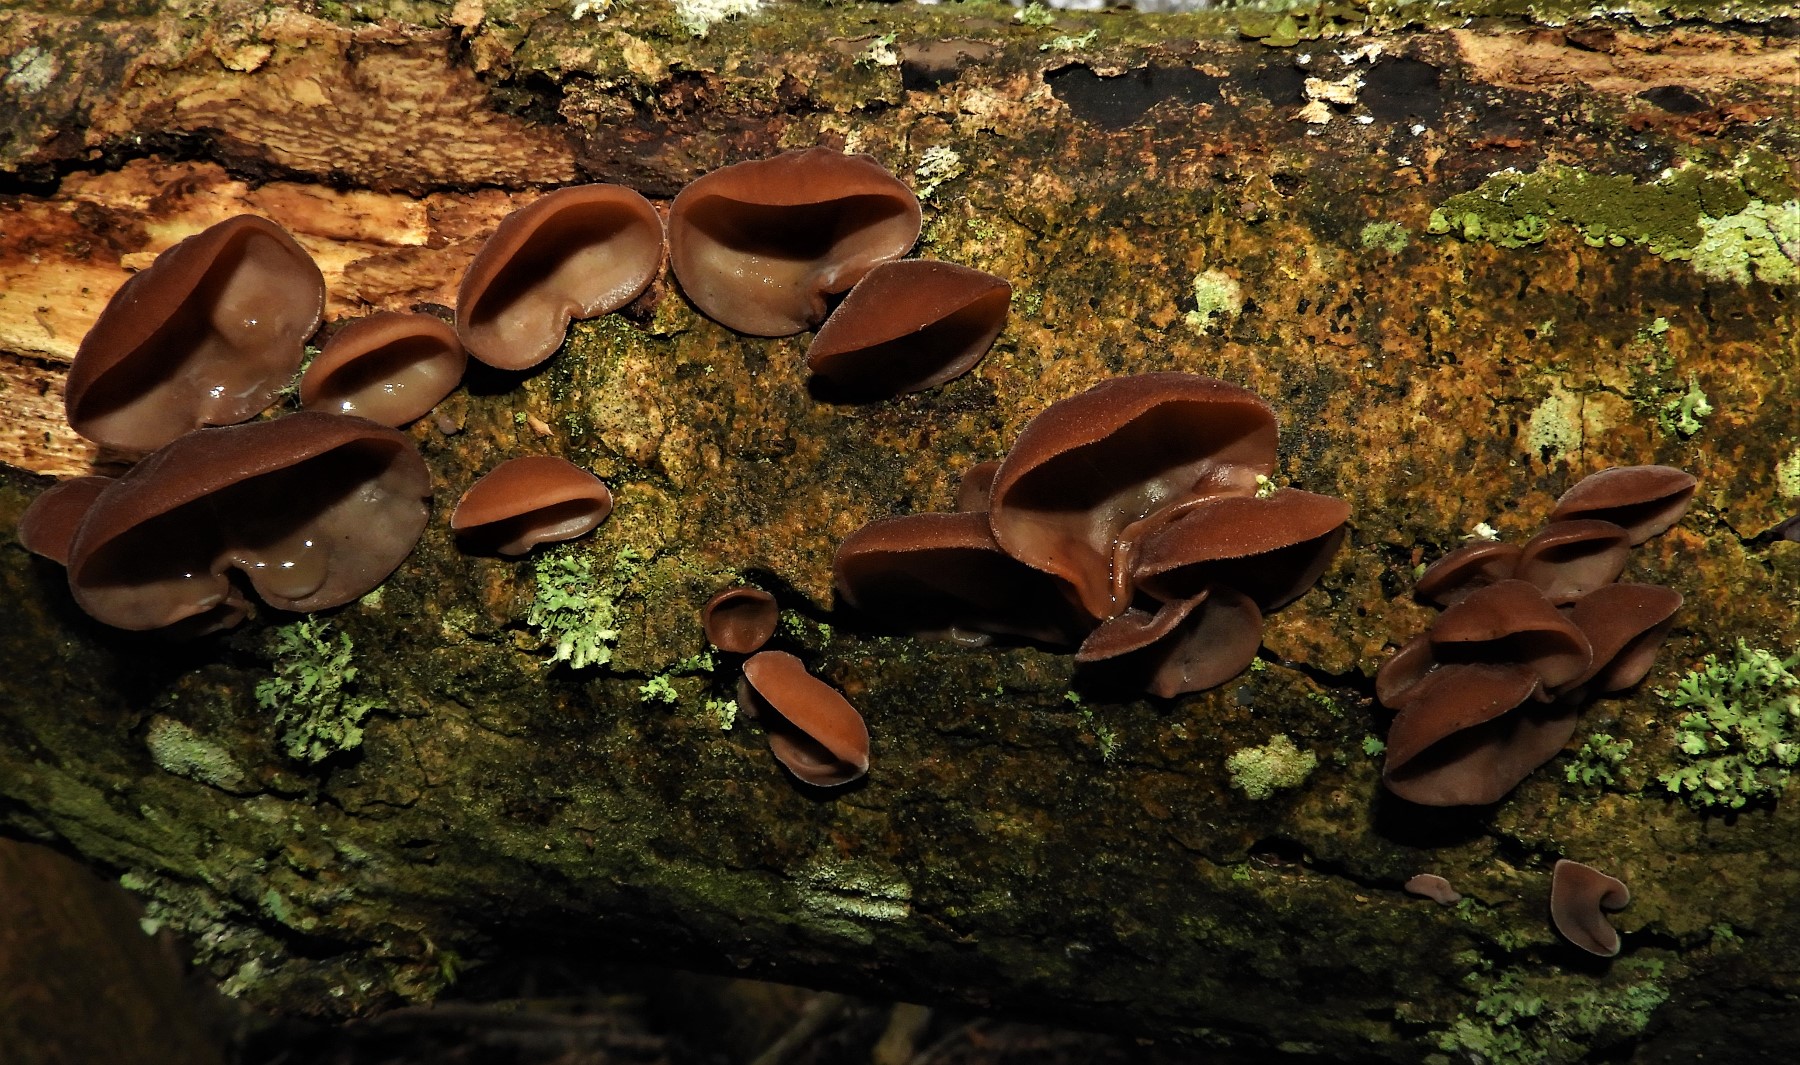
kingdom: Fungi
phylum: Basidiomycota
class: Agaricomycetes
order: Auriculariales
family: Auriculariaceae
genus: Auricularia
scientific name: Auricularia auricula-judae
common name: almindelig judasøre
